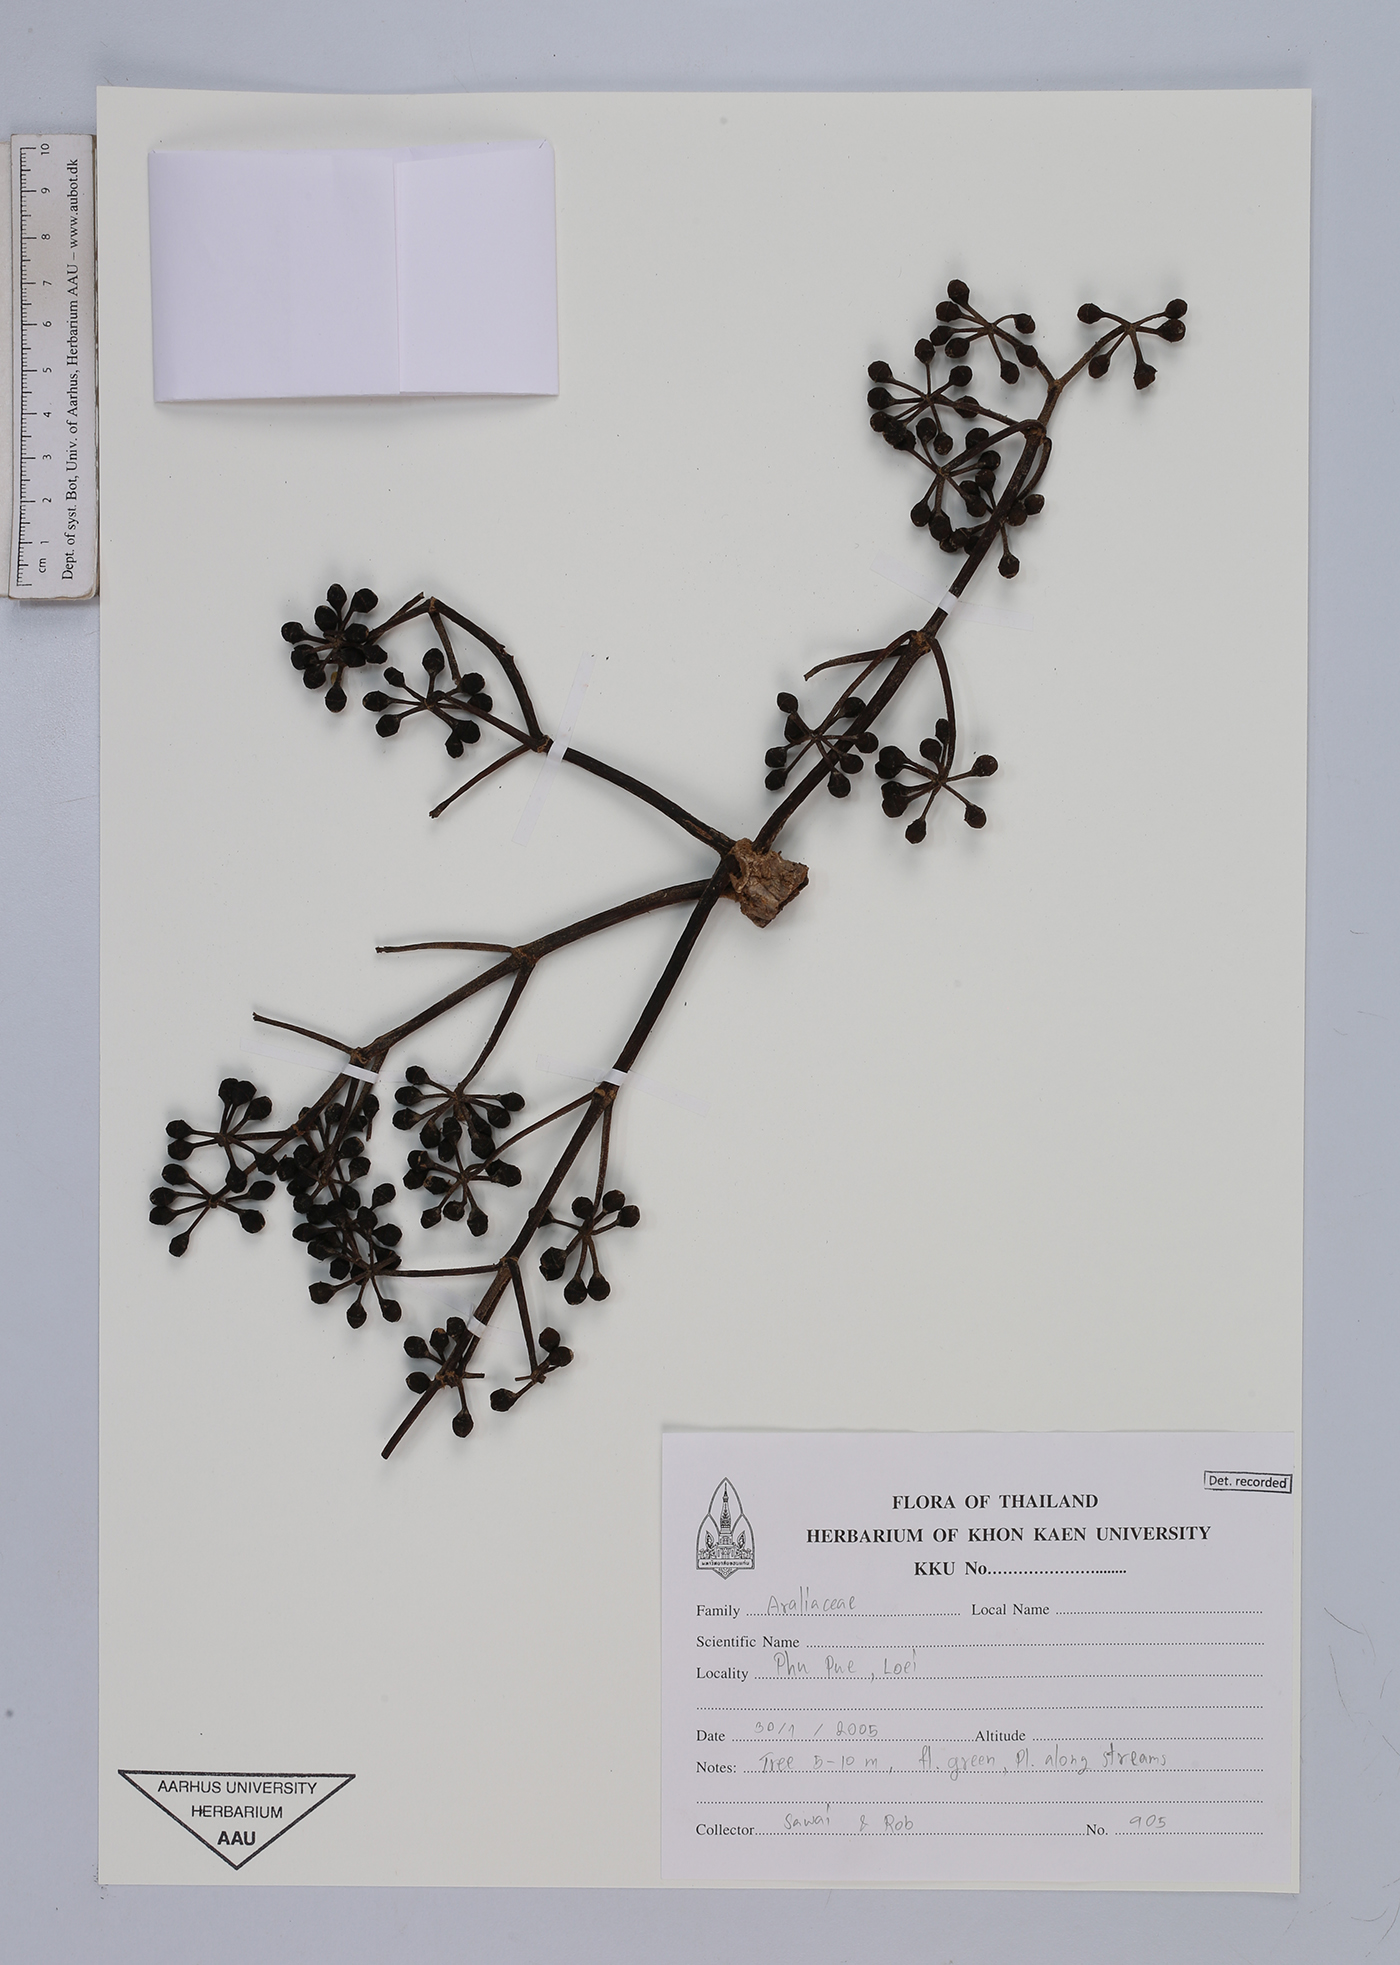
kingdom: Plantae
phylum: Tracheophyta
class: Magnoliopsida
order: Apiales
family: Araliaceae
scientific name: Araliaceae
